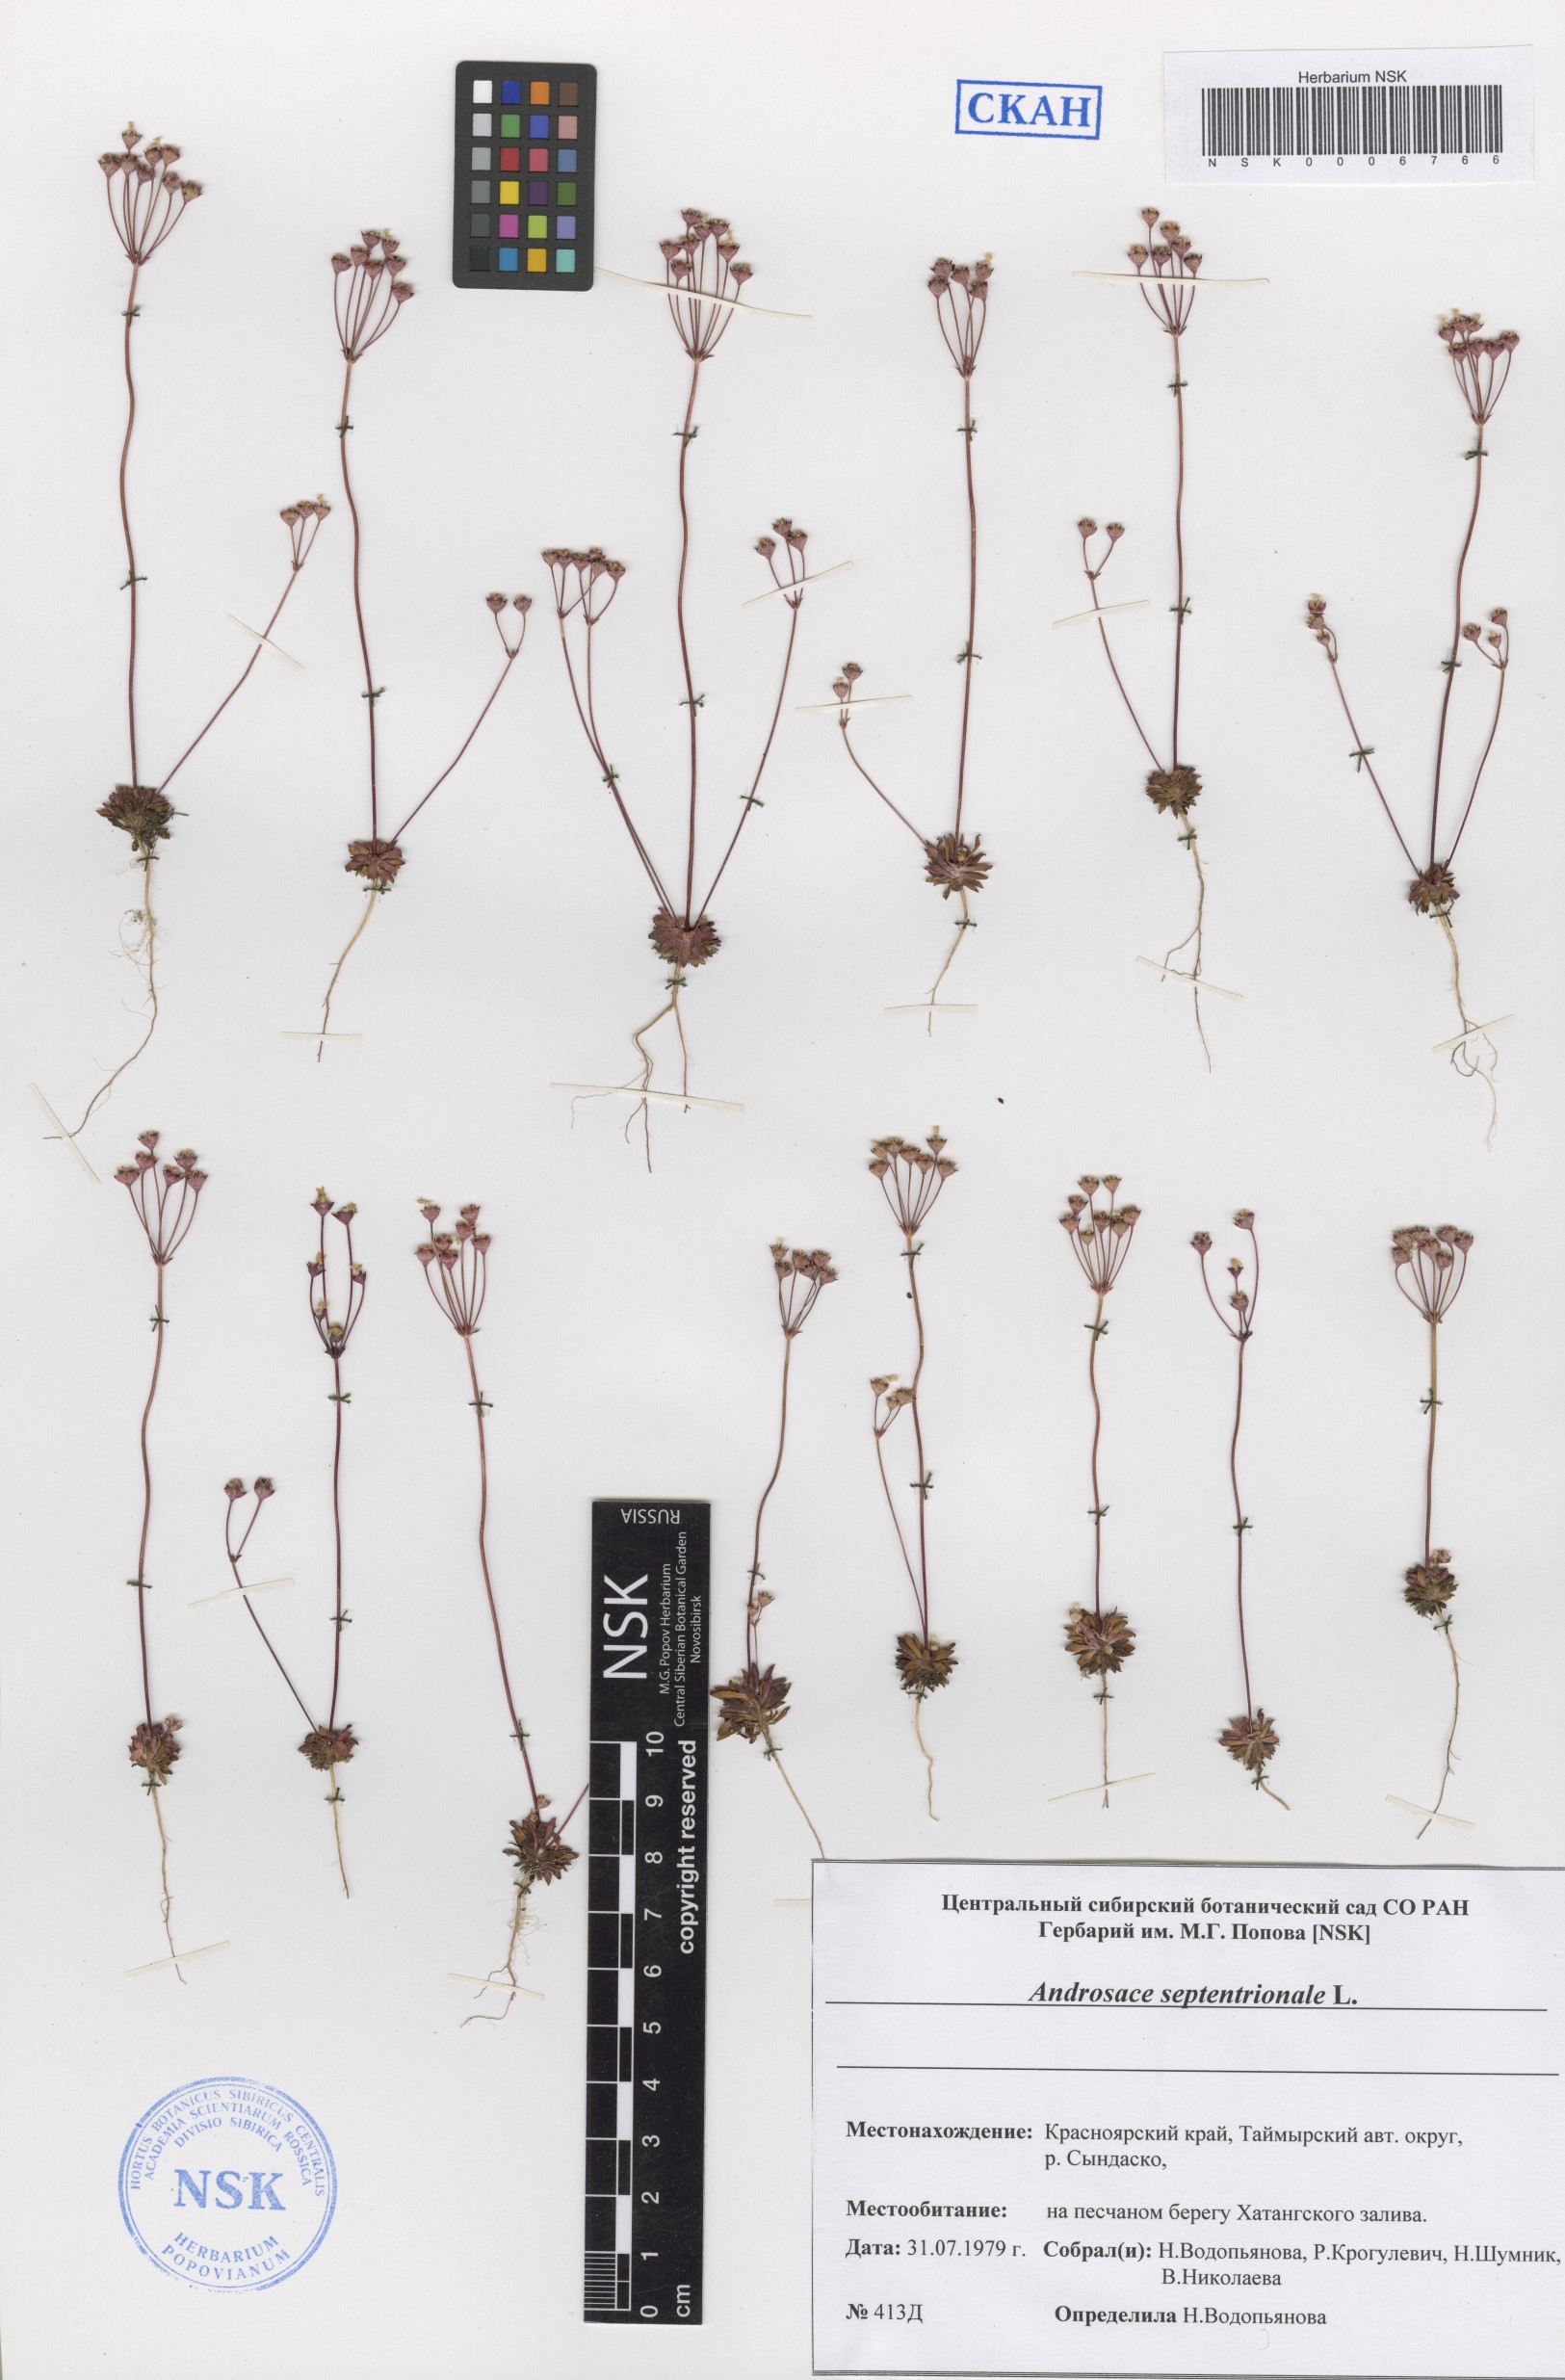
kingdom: Plantae
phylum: Tracheophyta
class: Magnoliopsida
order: Ericales
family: Primulaceae
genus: Androsace
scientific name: Androsace septentrionalis
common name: Hairy northern fairy-candelabra
